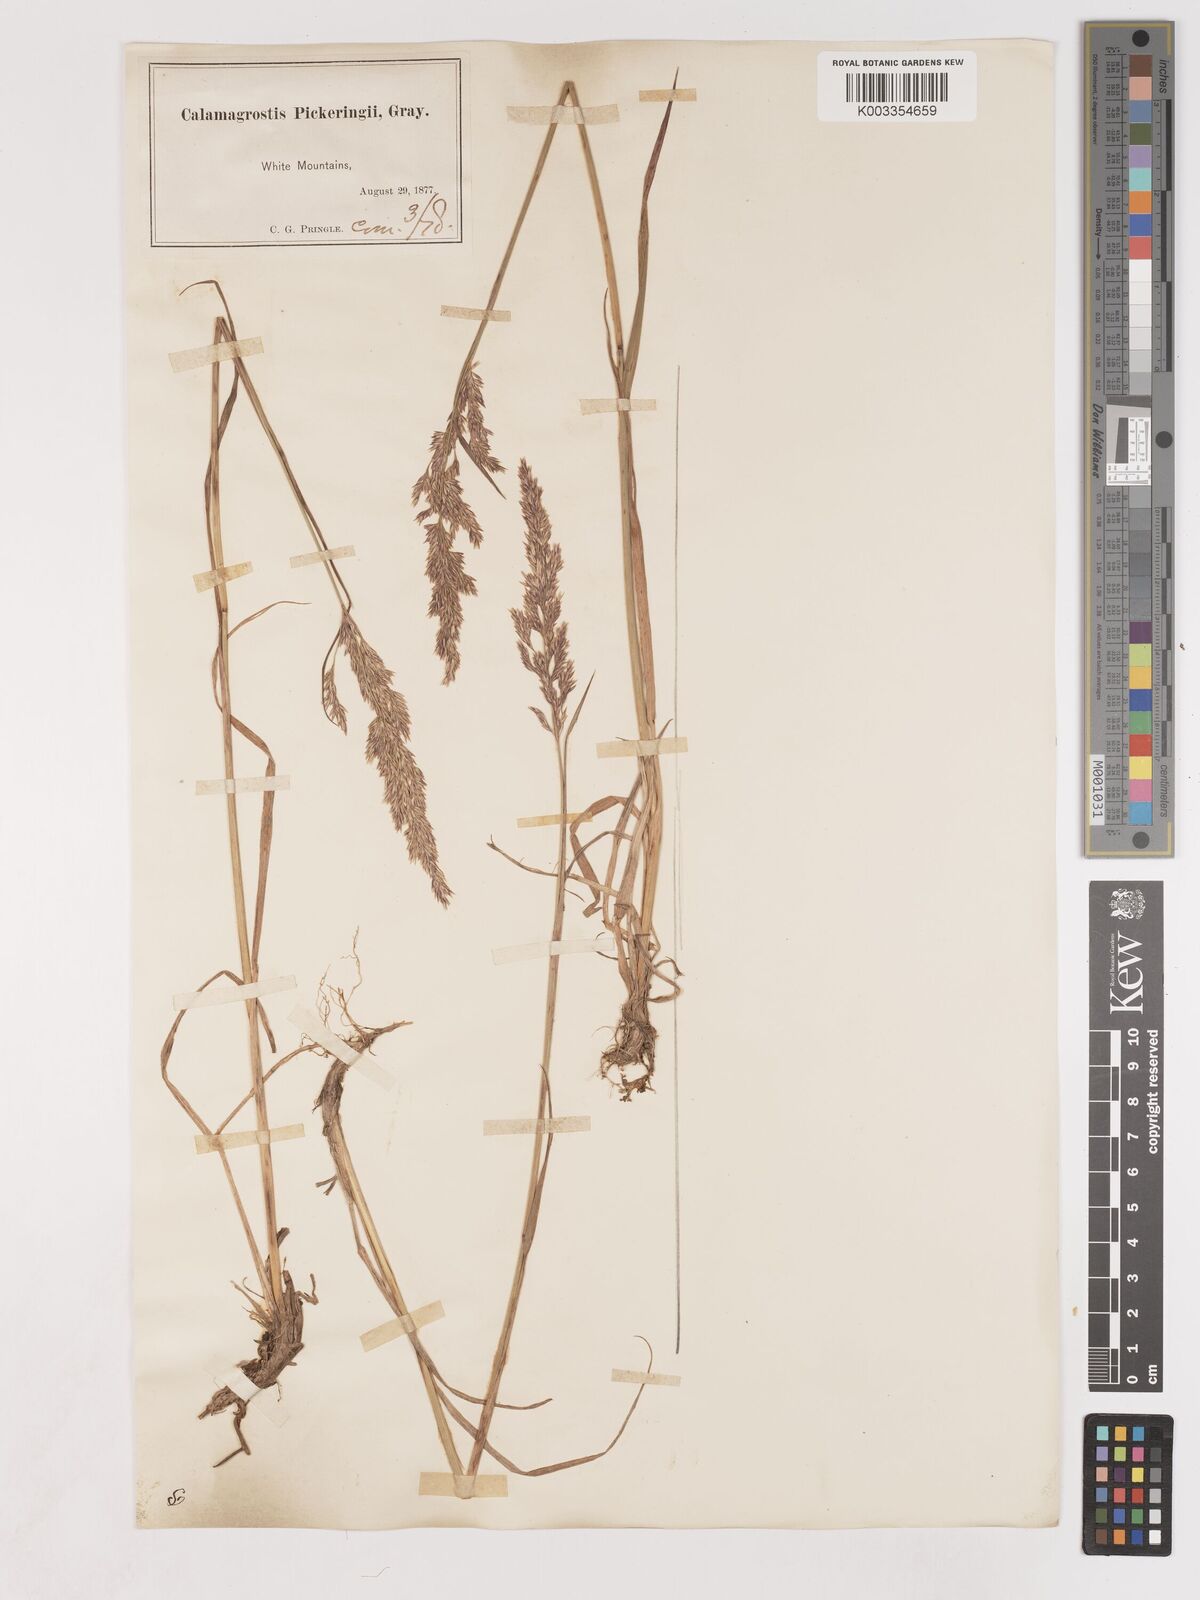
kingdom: Plantae
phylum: Tracheophyta
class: Liliopsida
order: Poales
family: Poaceae
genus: Calamagrostis
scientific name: Calamagrostis pickeringii
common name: Pickering's reed bentgrass
